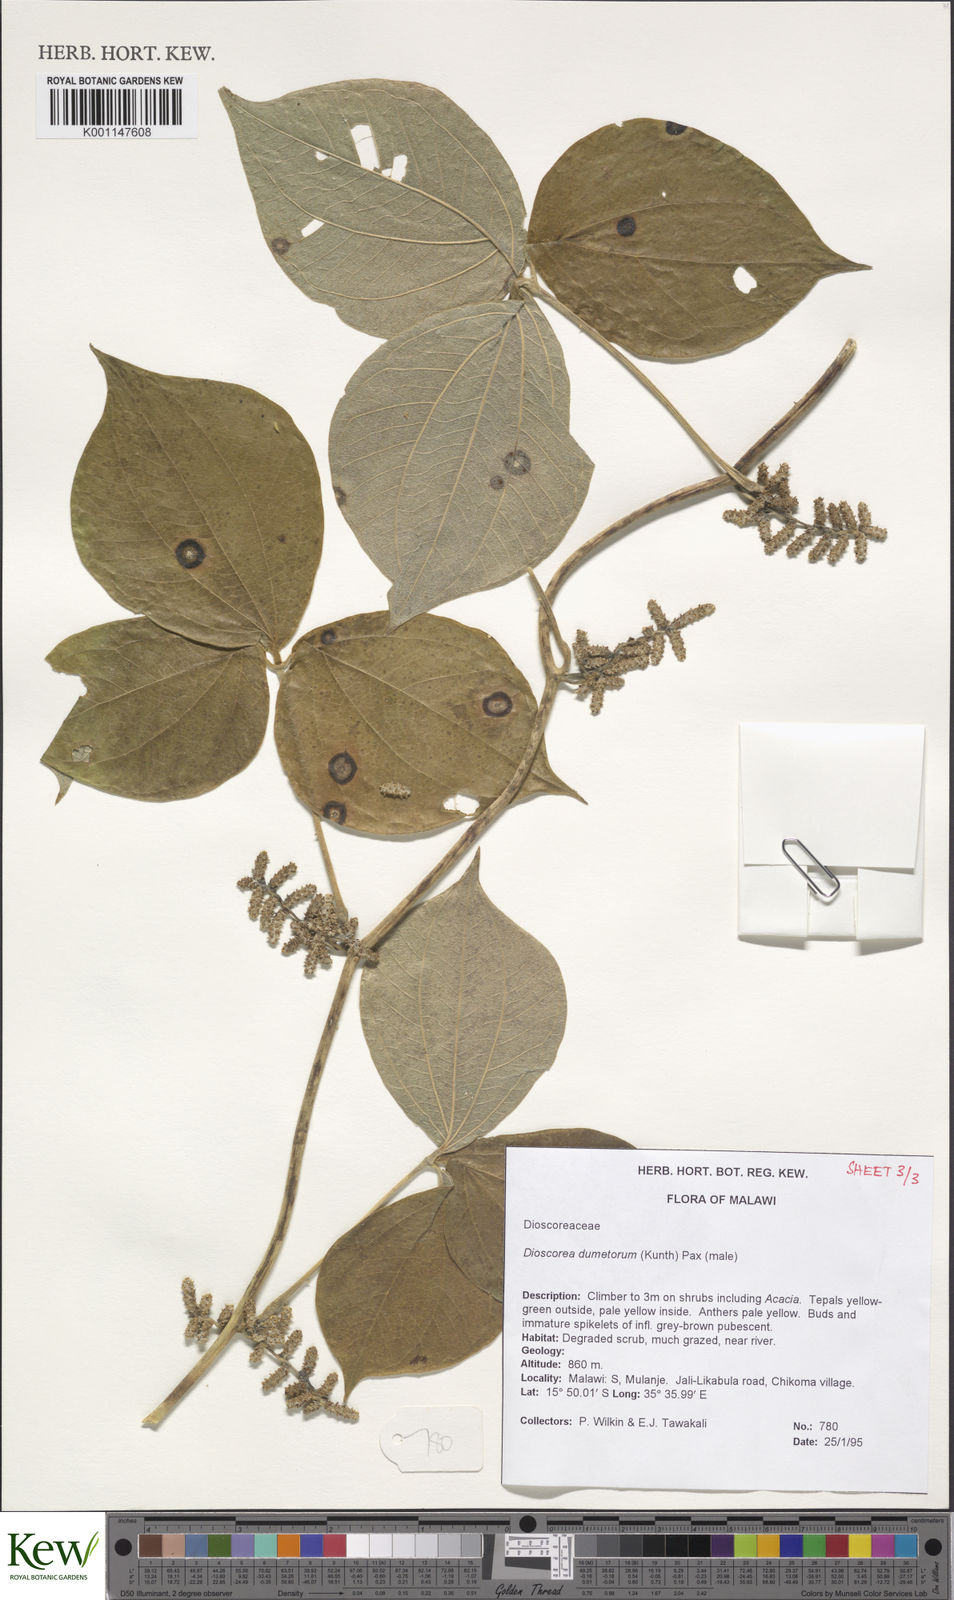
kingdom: Plantae
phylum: Tracheophyta
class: Liliopsida
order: Dioscoreales
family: Dioscoreaceae
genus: Dioscorea
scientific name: Dioscorea dumetorum
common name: African bitter yam
